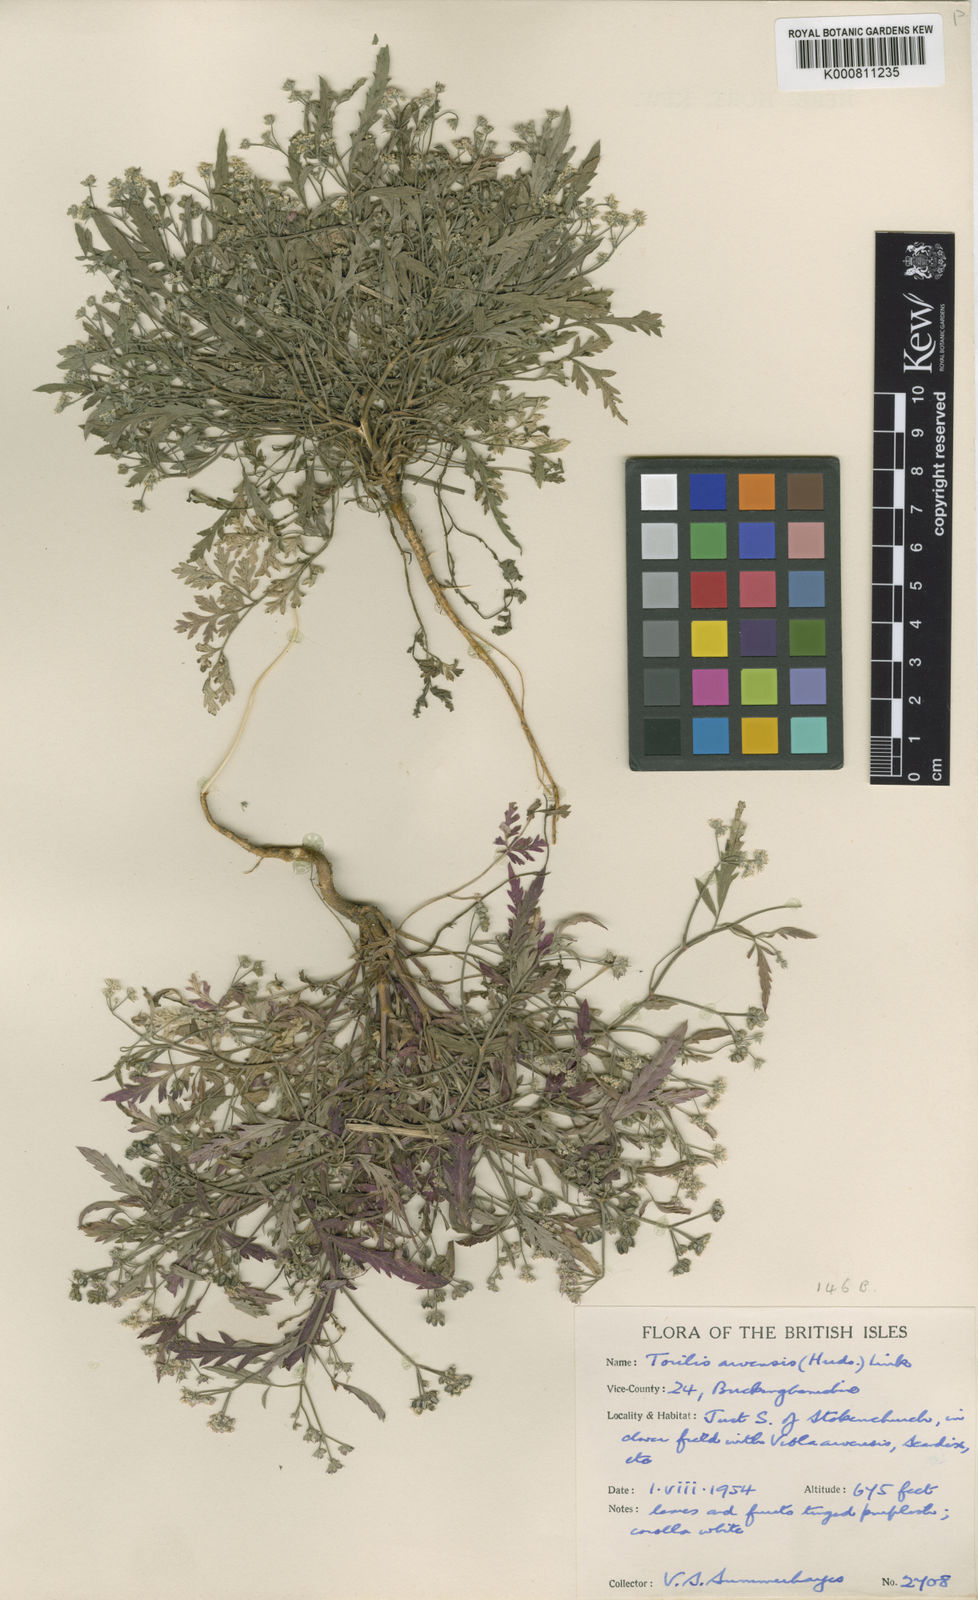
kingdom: Plantae
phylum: Tracheophyta
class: Magnoliopsida
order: Apiales
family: Apiaceae
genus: Torilis
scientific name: Torilis arvensis
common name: Spreading hedge-parsley
